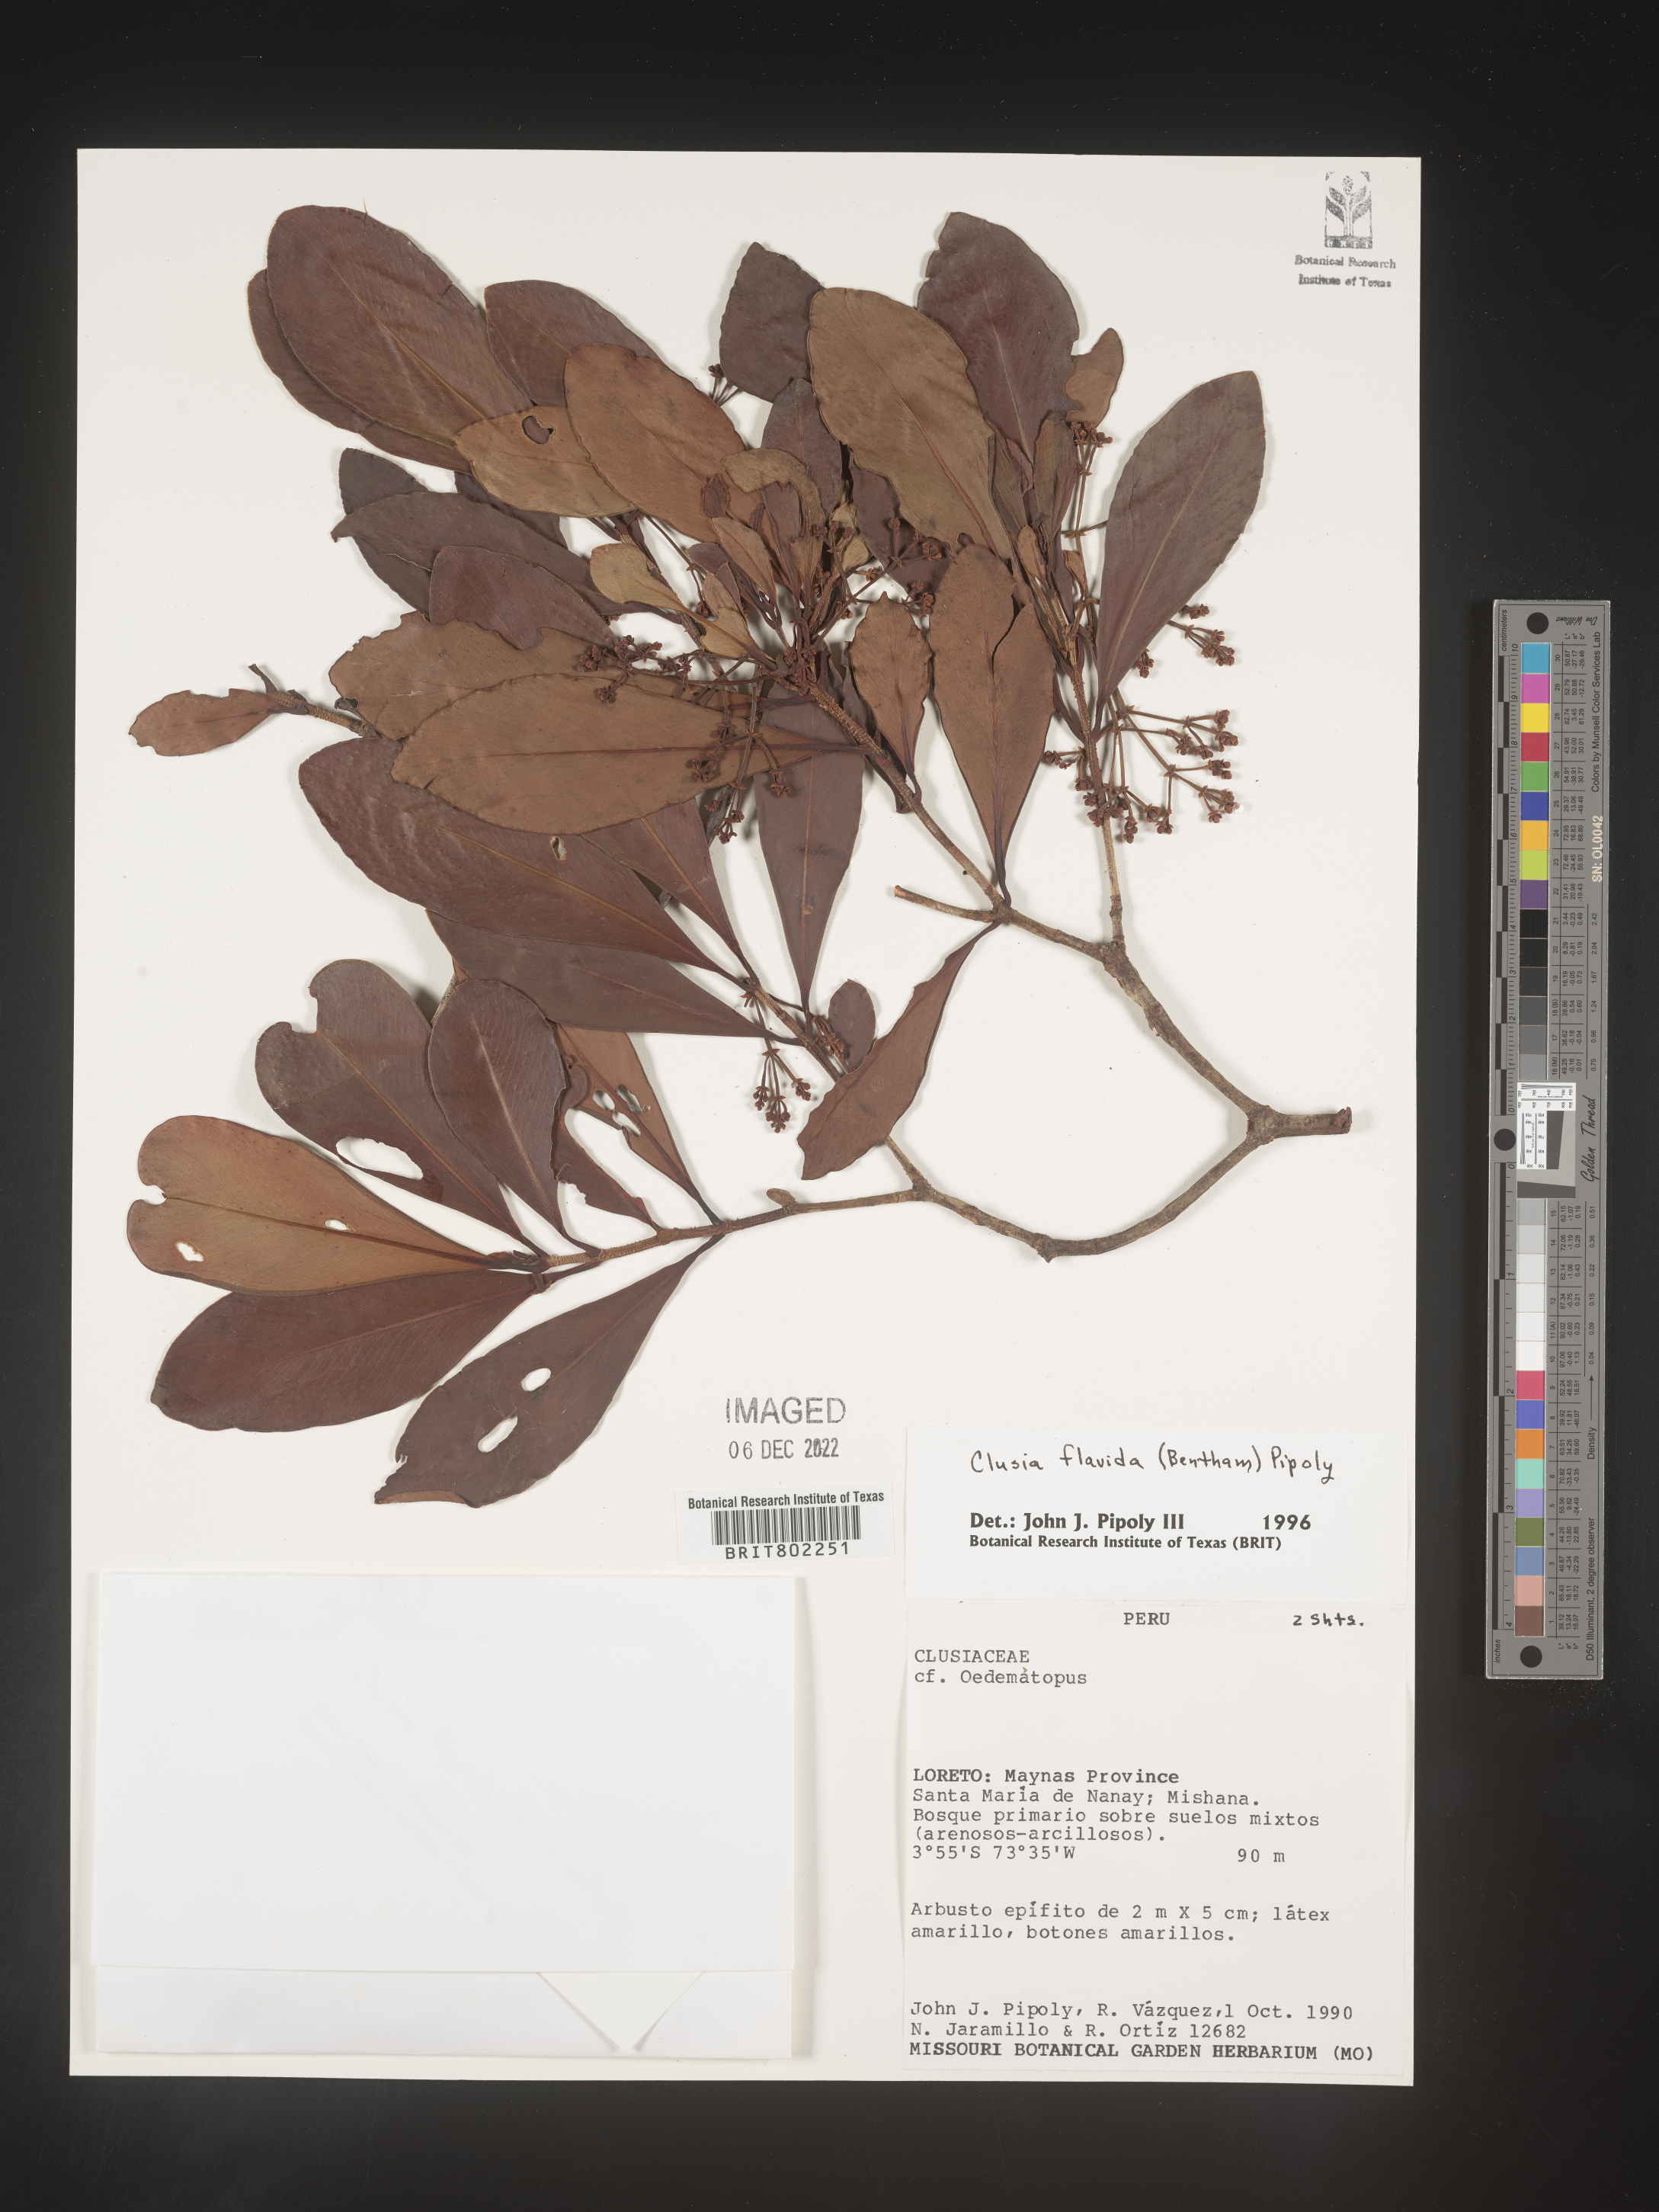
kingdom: Plantae
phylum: Tracheophyta
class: Magnoliopsida
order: Malpighiales
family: Clusiaceae
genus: Clusia
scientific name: Clusia flavida
